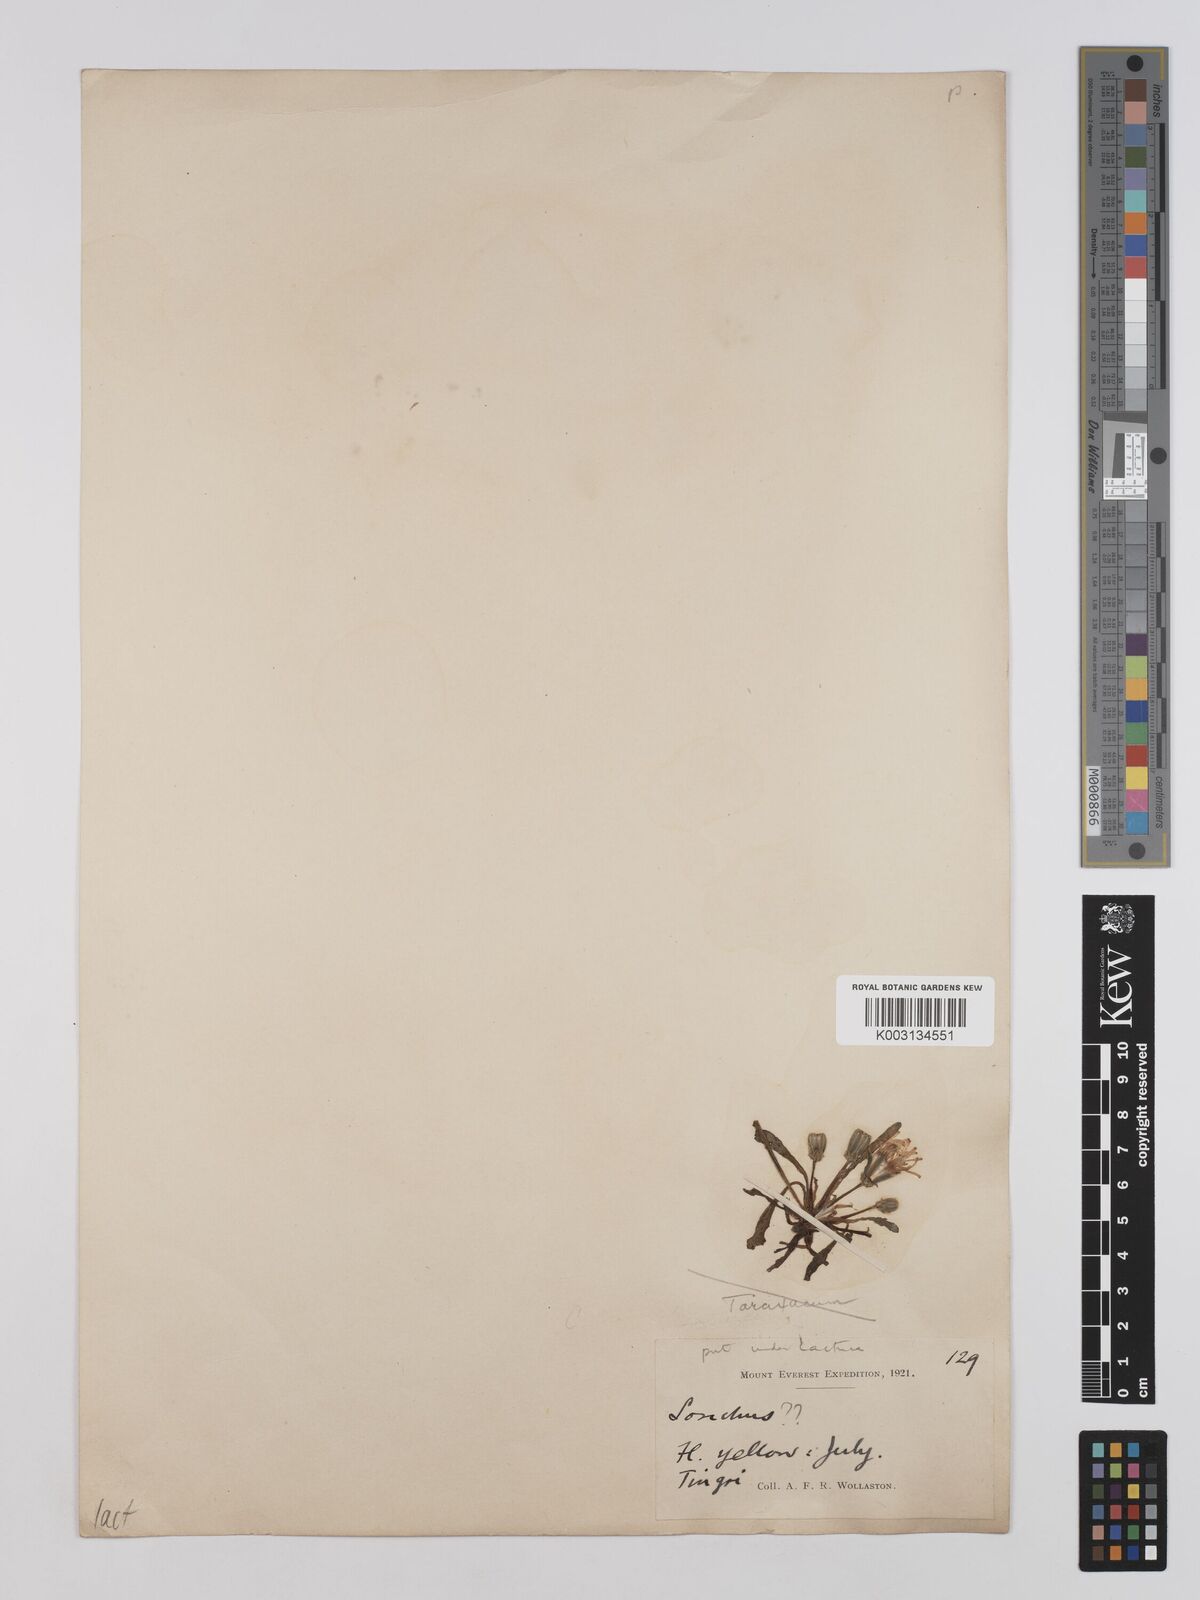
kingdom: Plantae
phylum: Tracheophyta
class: Magnoliopsida
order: Asterales
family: Asteraceae
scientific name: Asteraceae
